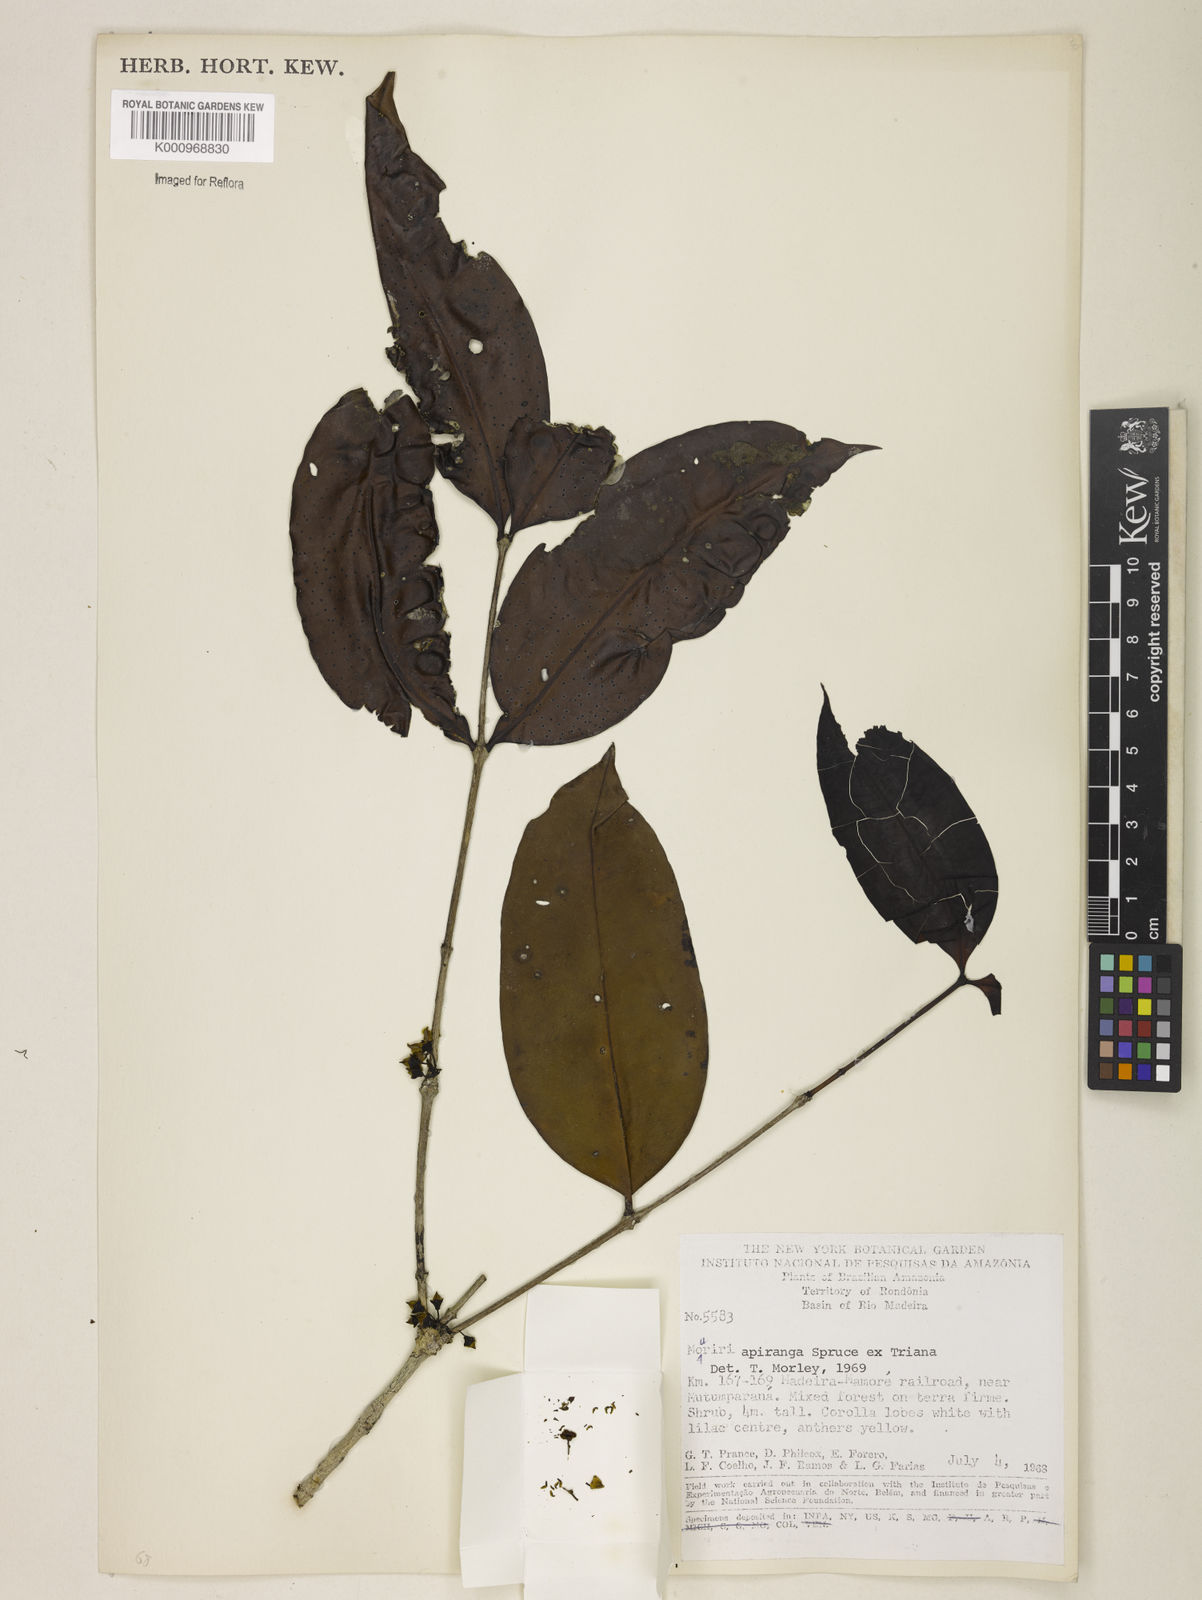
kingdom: Plantae
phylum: Tracheophyta
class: Magnoliopsida
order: Myrtales
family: Melastomataceae
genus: Mouriri
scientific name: Mouriri apiranga
